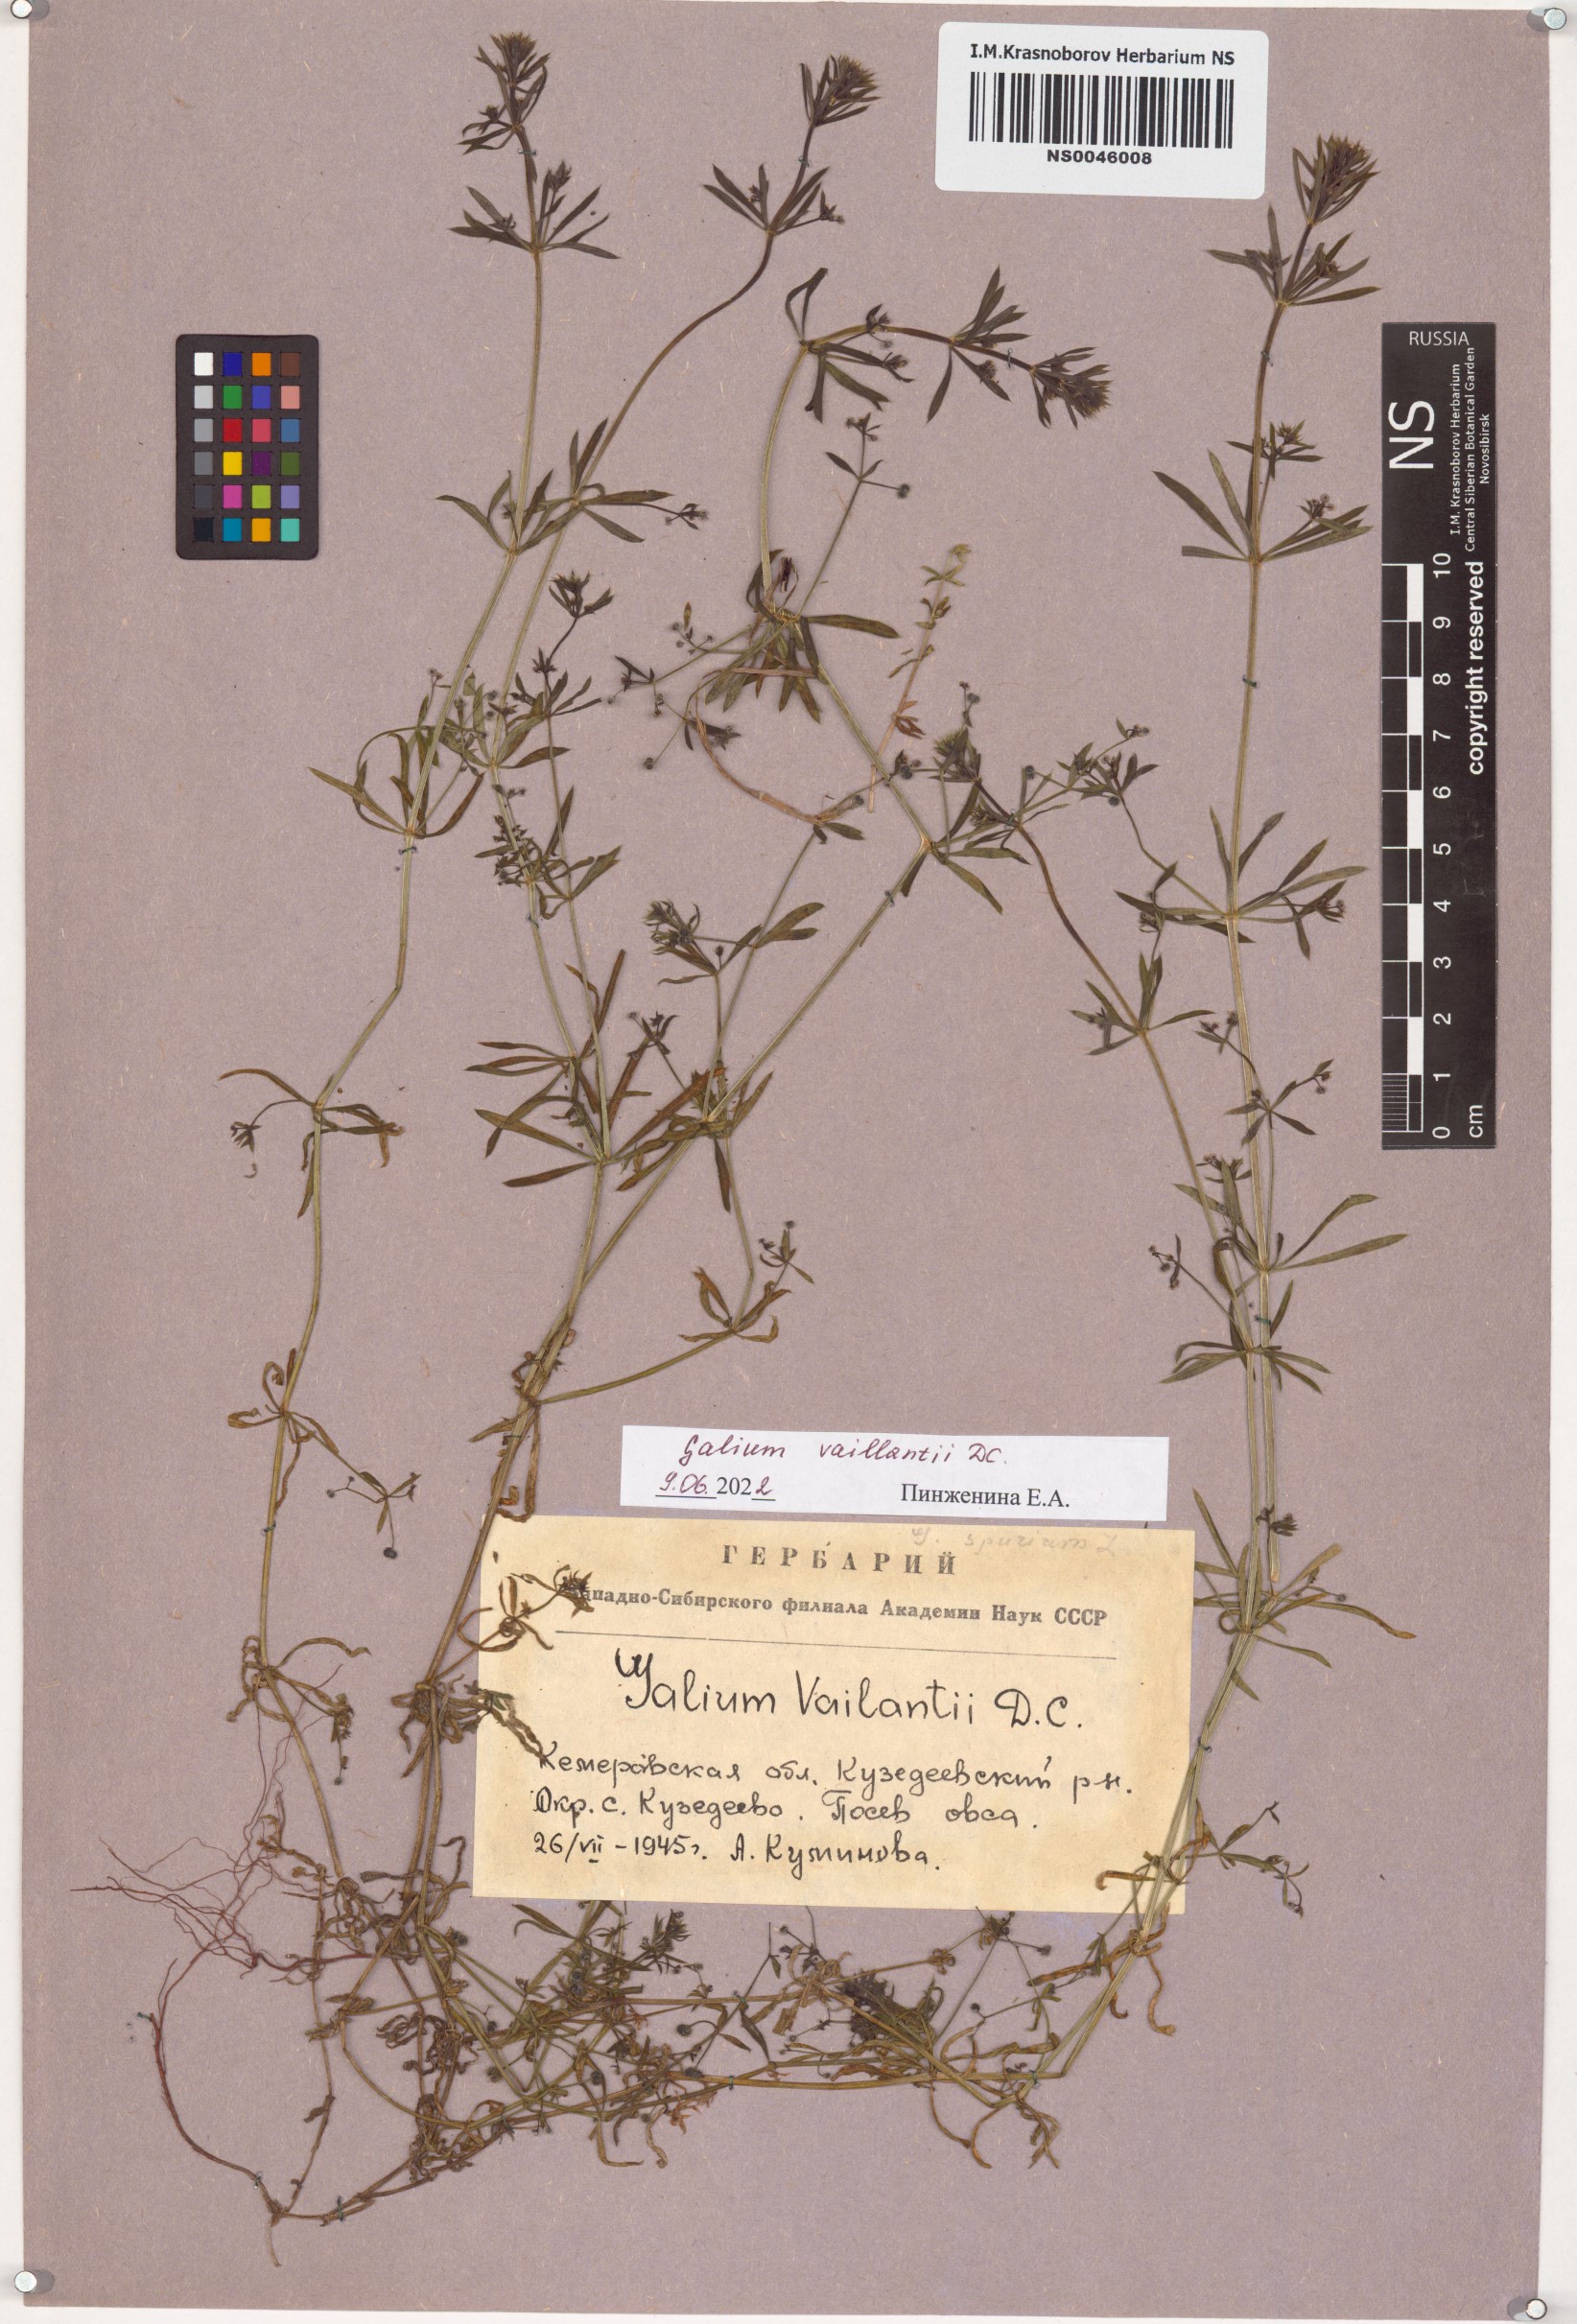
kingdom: Plantae
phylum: Tracheophyta
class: Magnoliopsida
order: Gentianales
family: Rubiaceae
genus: Galium
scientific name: Galium spurium
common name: False cleavers
